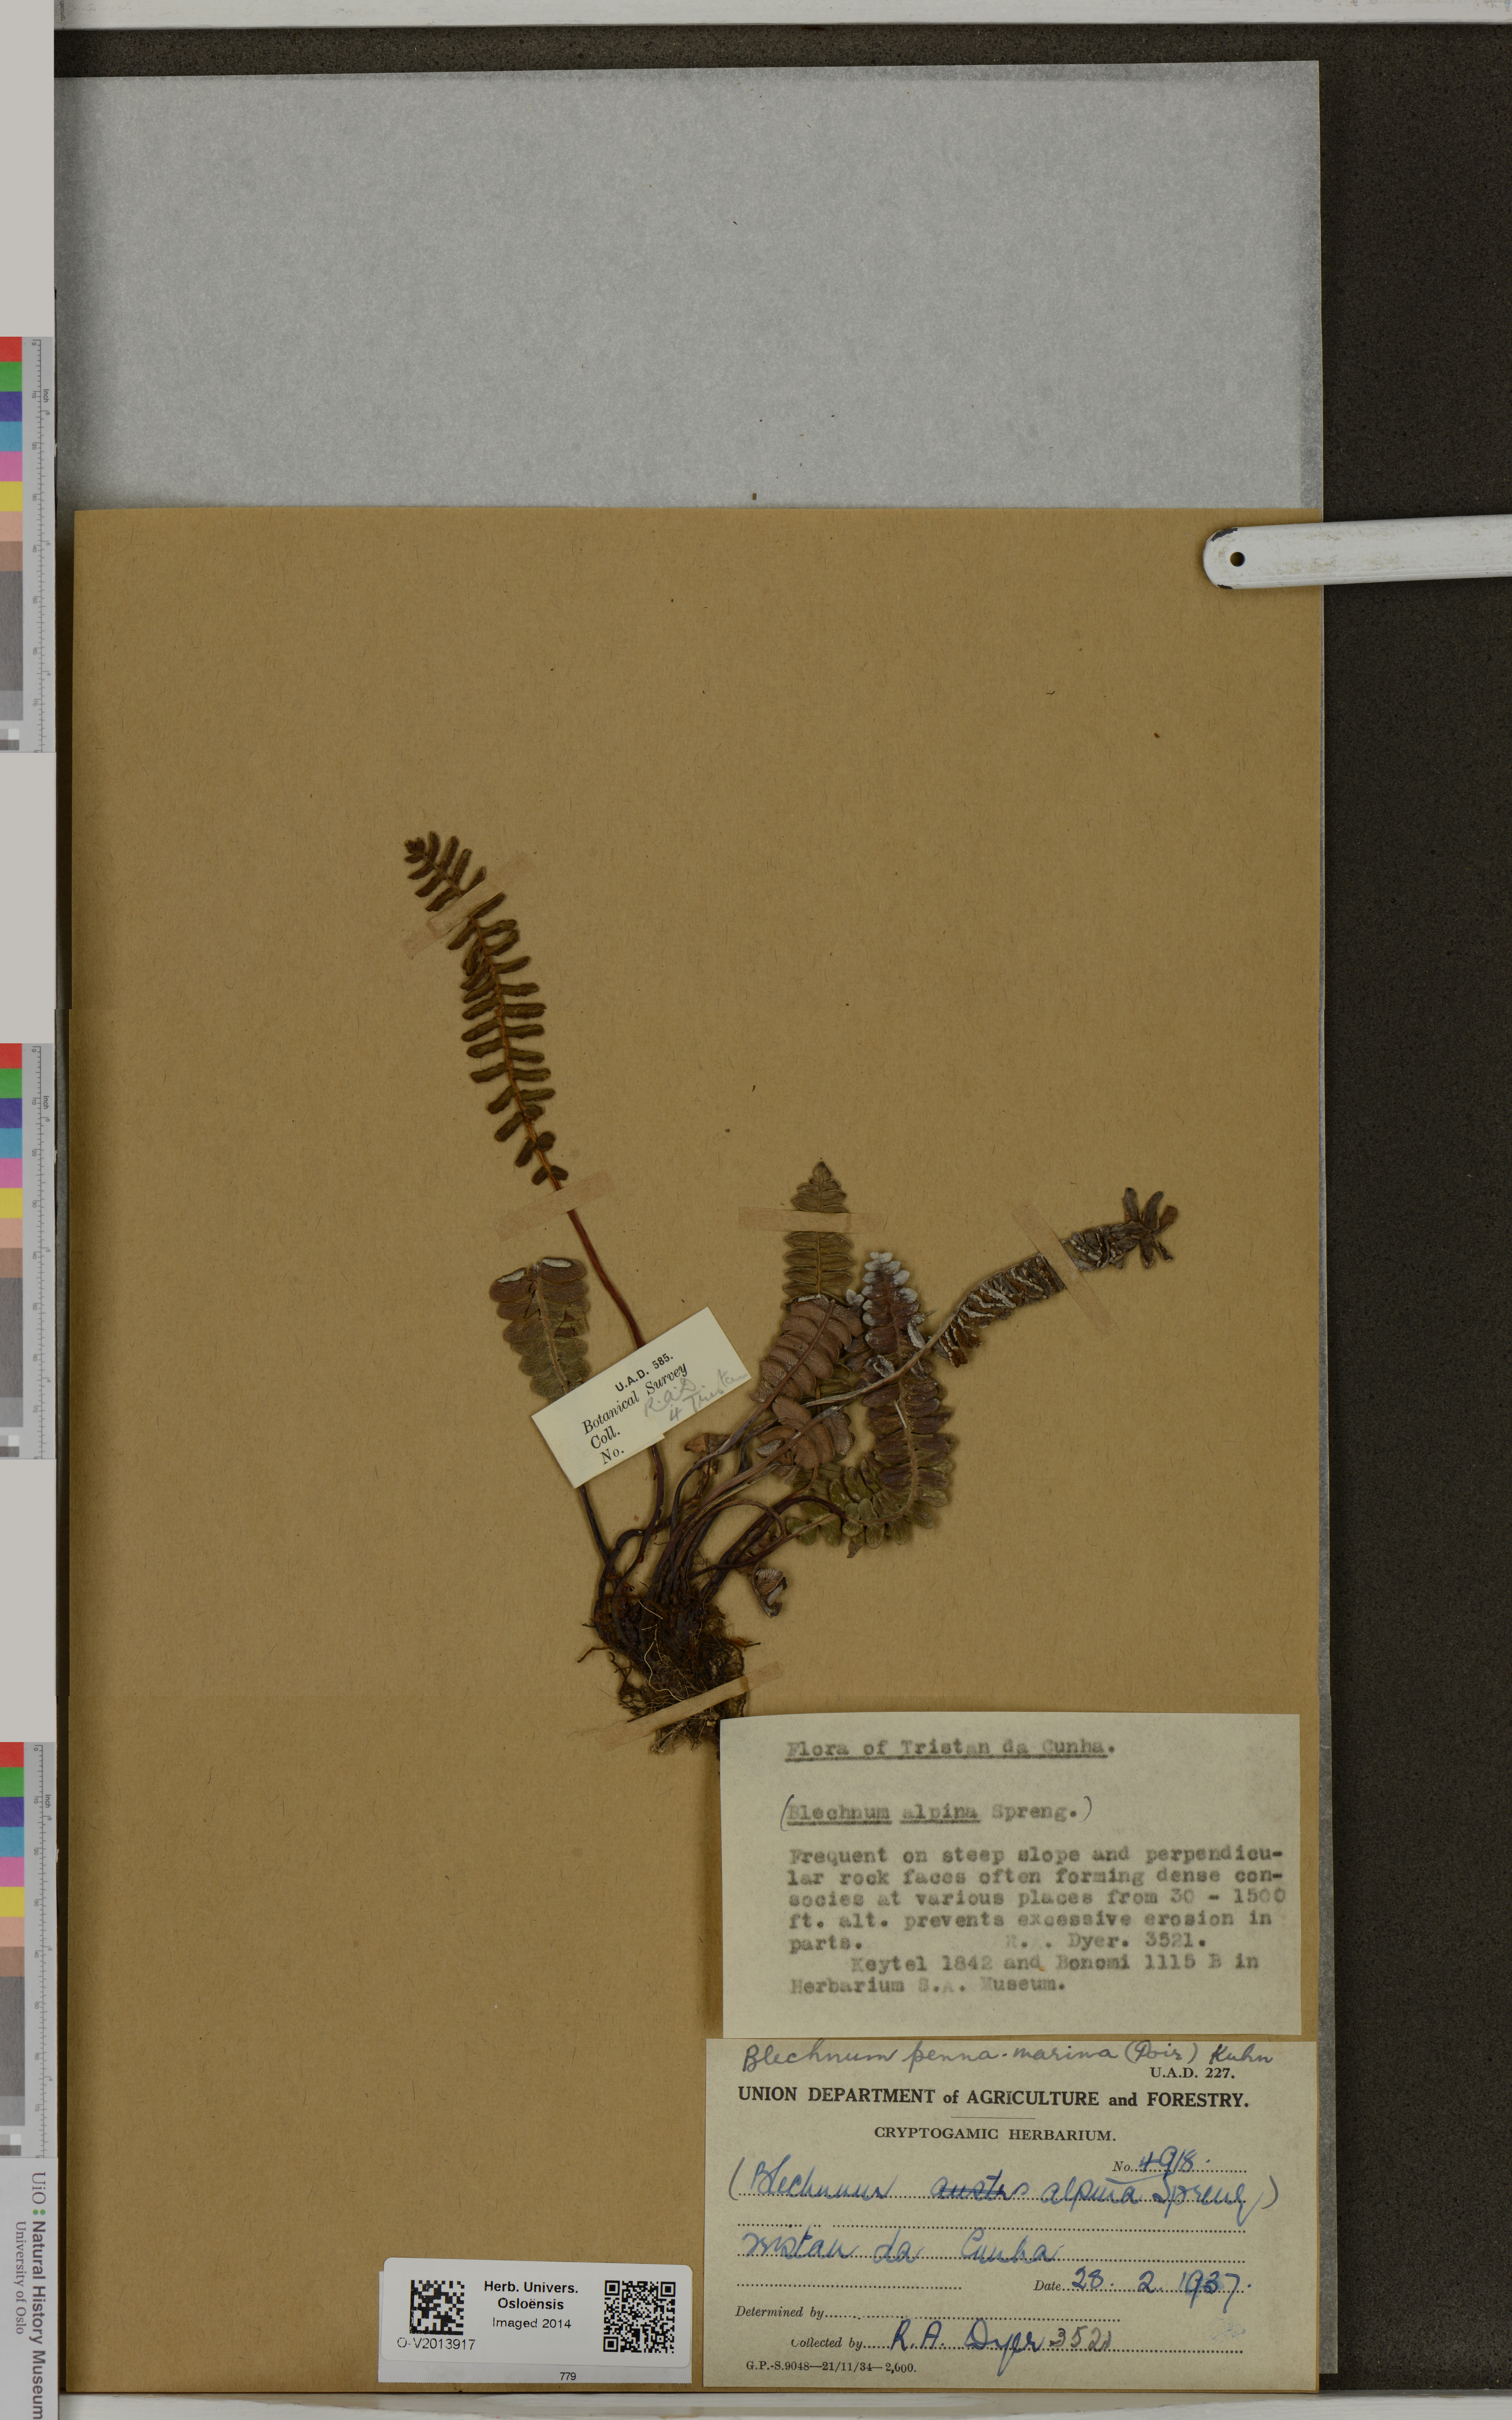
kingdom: Plantae
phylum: Tracheophyta
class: Polypodiopsida
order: Polypodiales
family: Blechnaceae
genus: Austroblechnum
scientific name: Austroblechnum penna-marina
